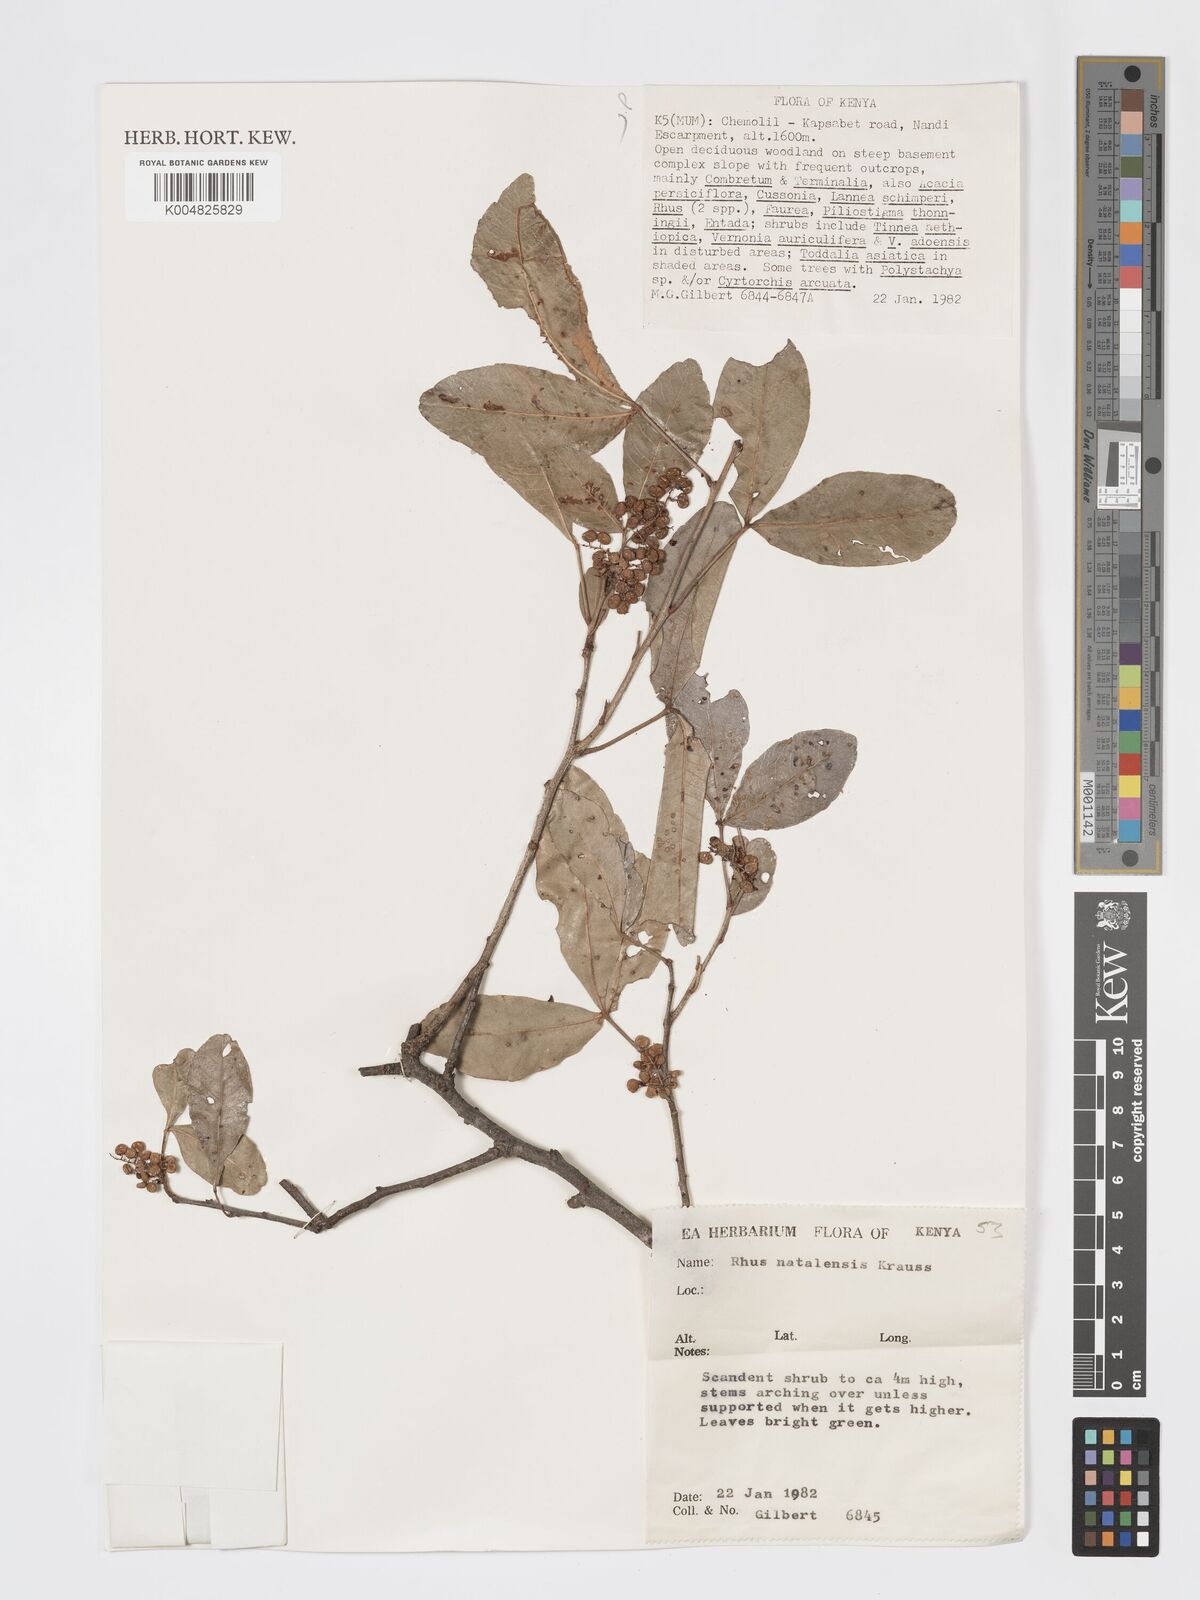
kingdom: Plantae
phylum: Tracheophyta
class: Magnoliopsida
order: Sapindales
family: Anacardiaceae
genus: Searsia
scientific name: Searsia natalensis
